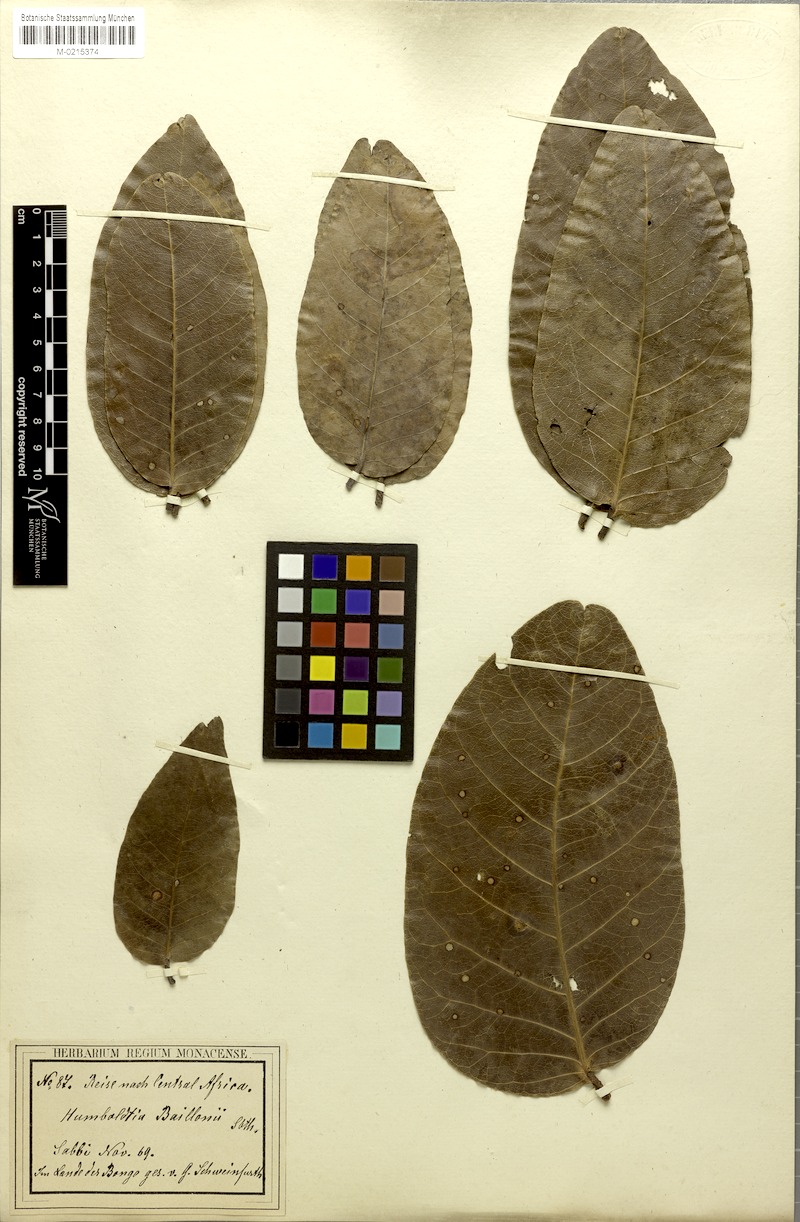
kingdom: Plantae
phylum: Tracheophyta
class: Magnoliopsida
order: Fabales
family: Fabaceae
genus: Isoberlinia
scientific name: Isoberlinia doka
